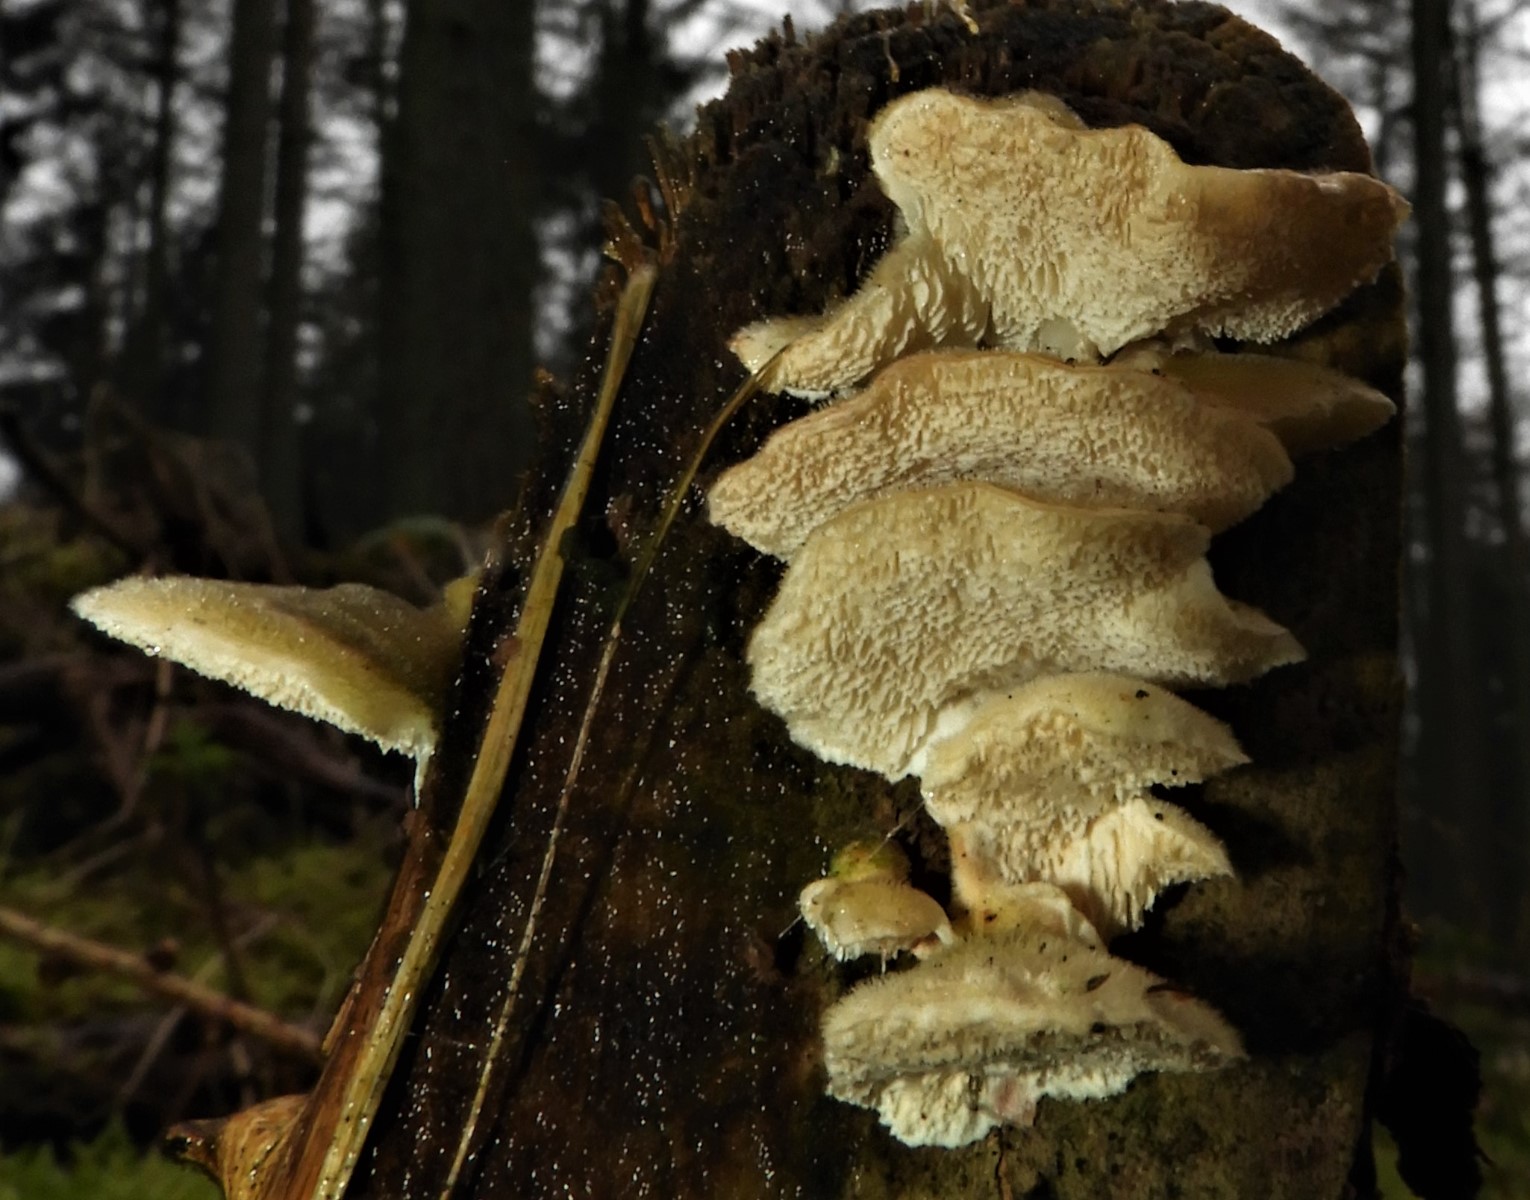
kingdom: Fungi
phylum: Basidiomycota
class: Agaricomycetes
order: Polyporales
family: Polyporaceae
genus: Trametes
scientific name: Trametes hirsuta
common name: håret læderporesvamp
